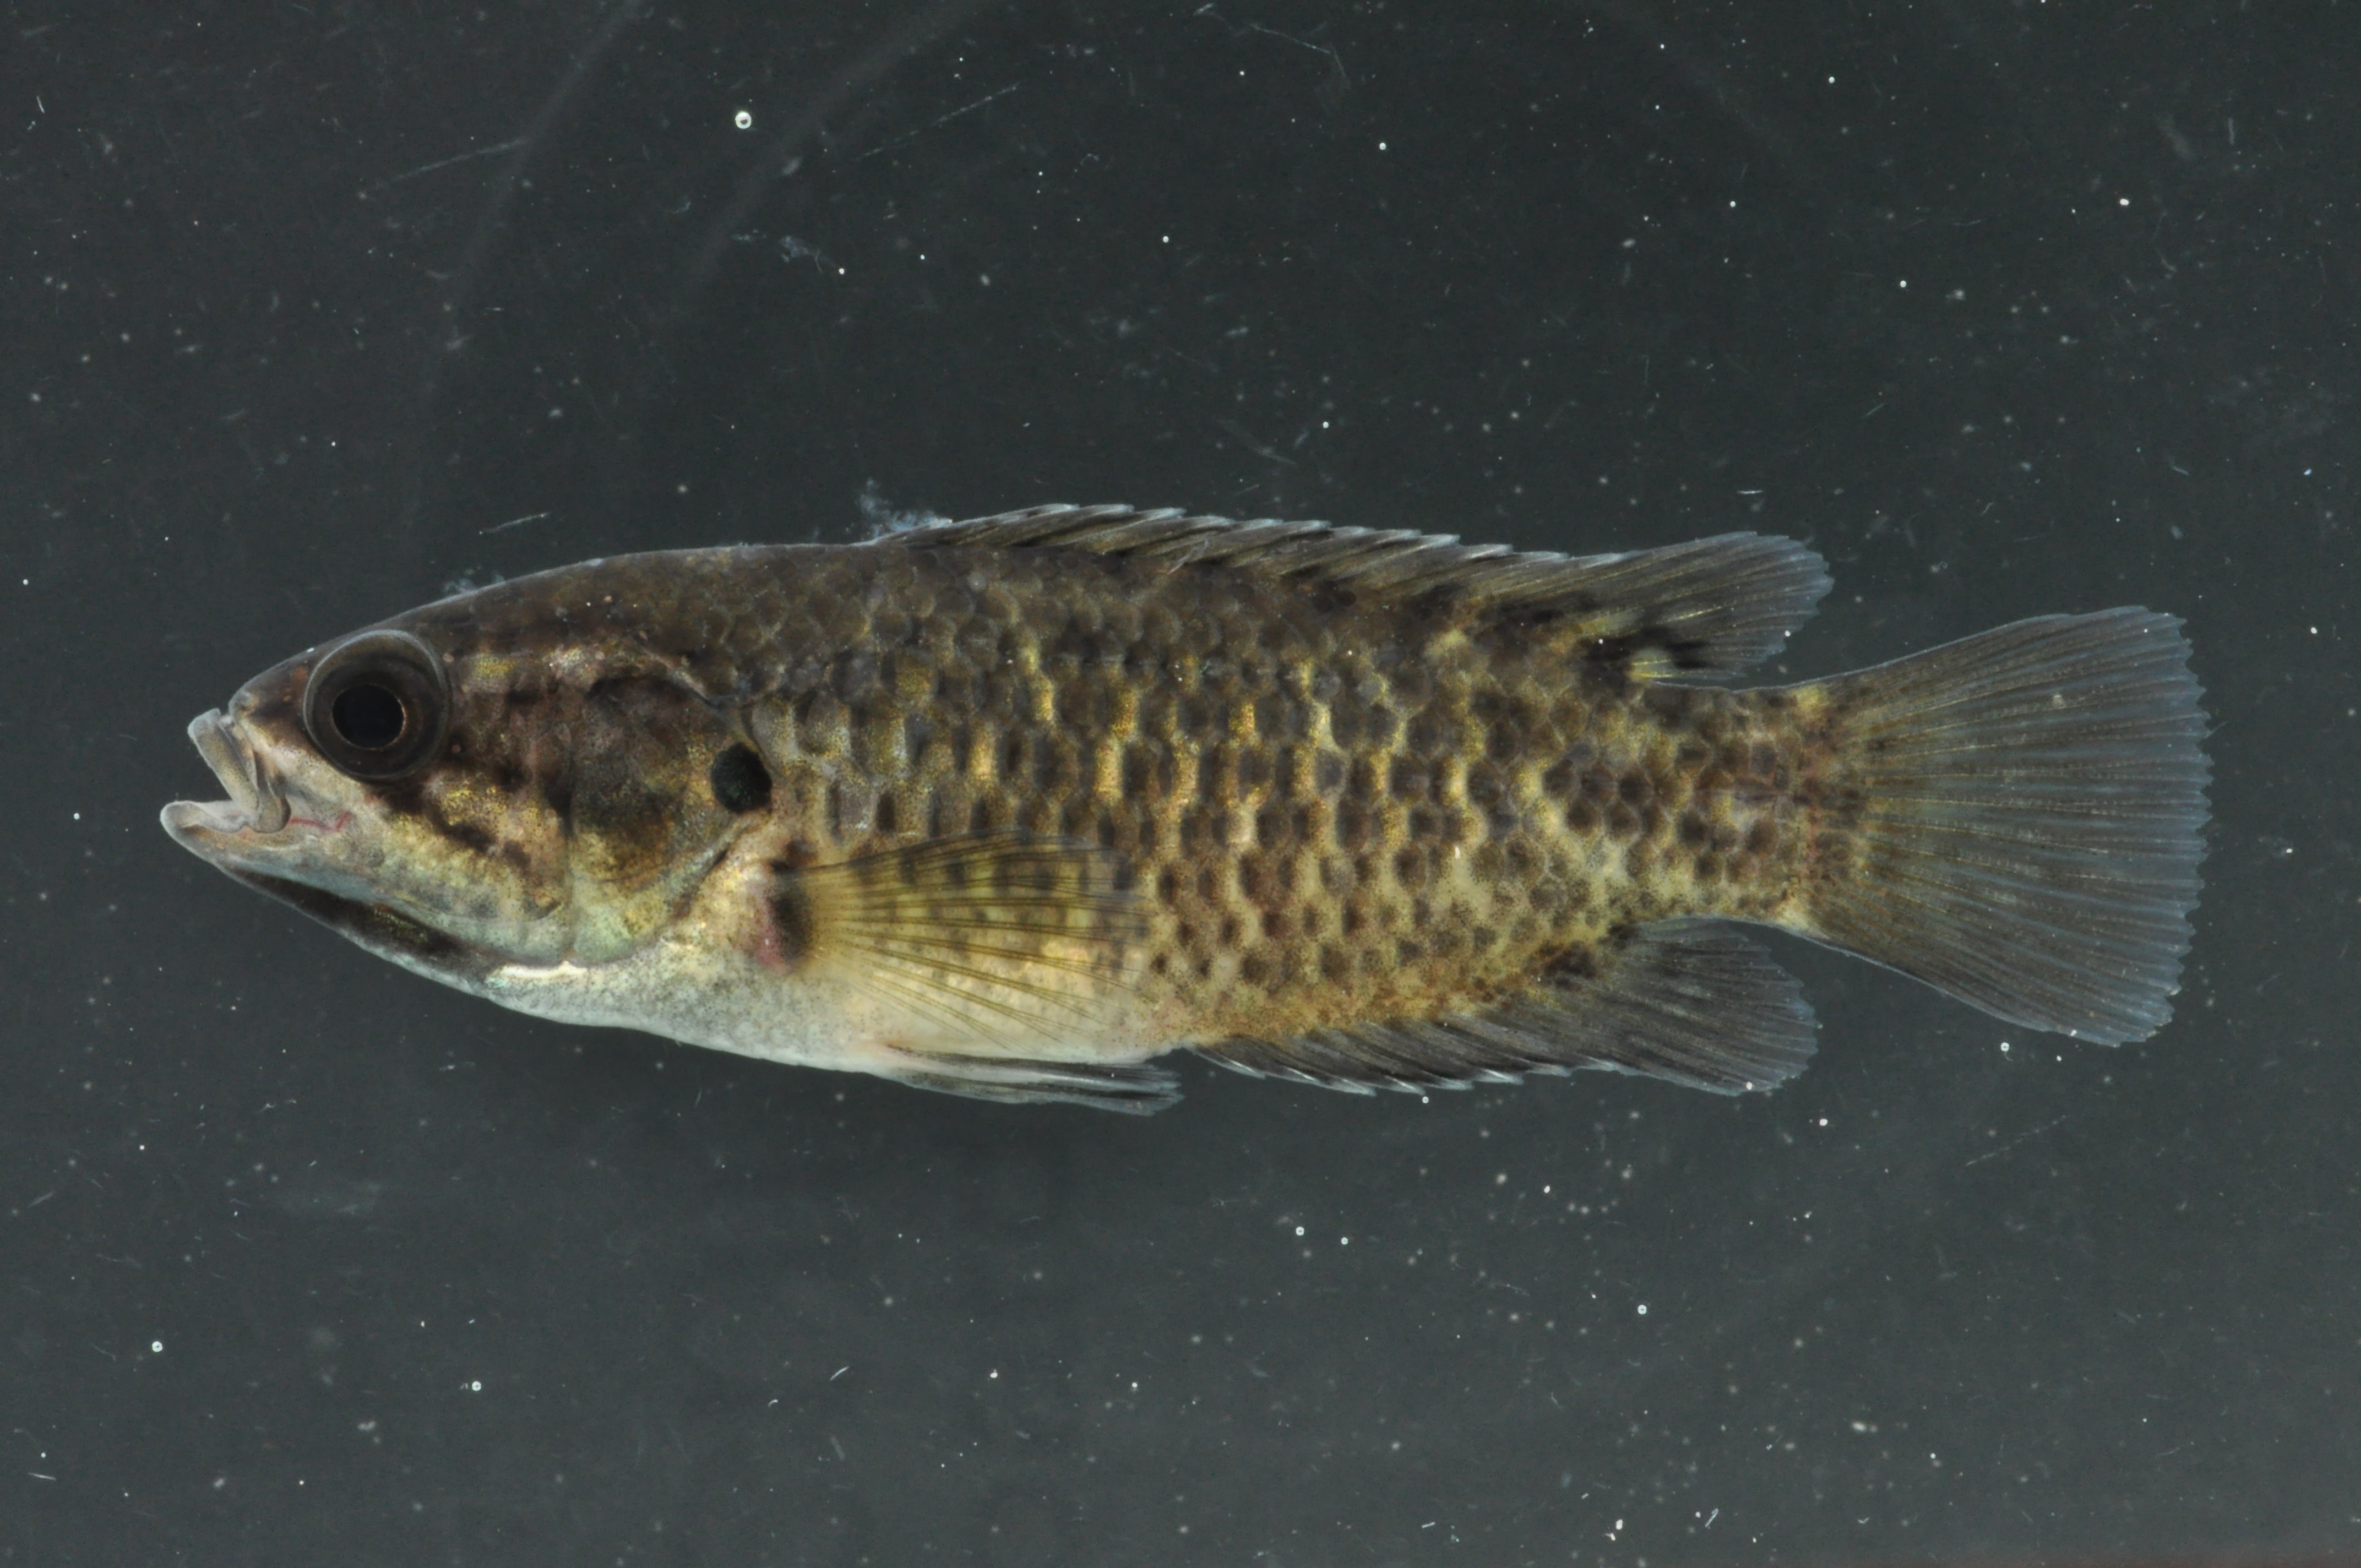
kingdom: Animalia
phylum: Chordata
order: Perciformes
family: Anabantidae
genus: Sandelia
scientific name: Sandelia capensis
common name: Cape kurper
